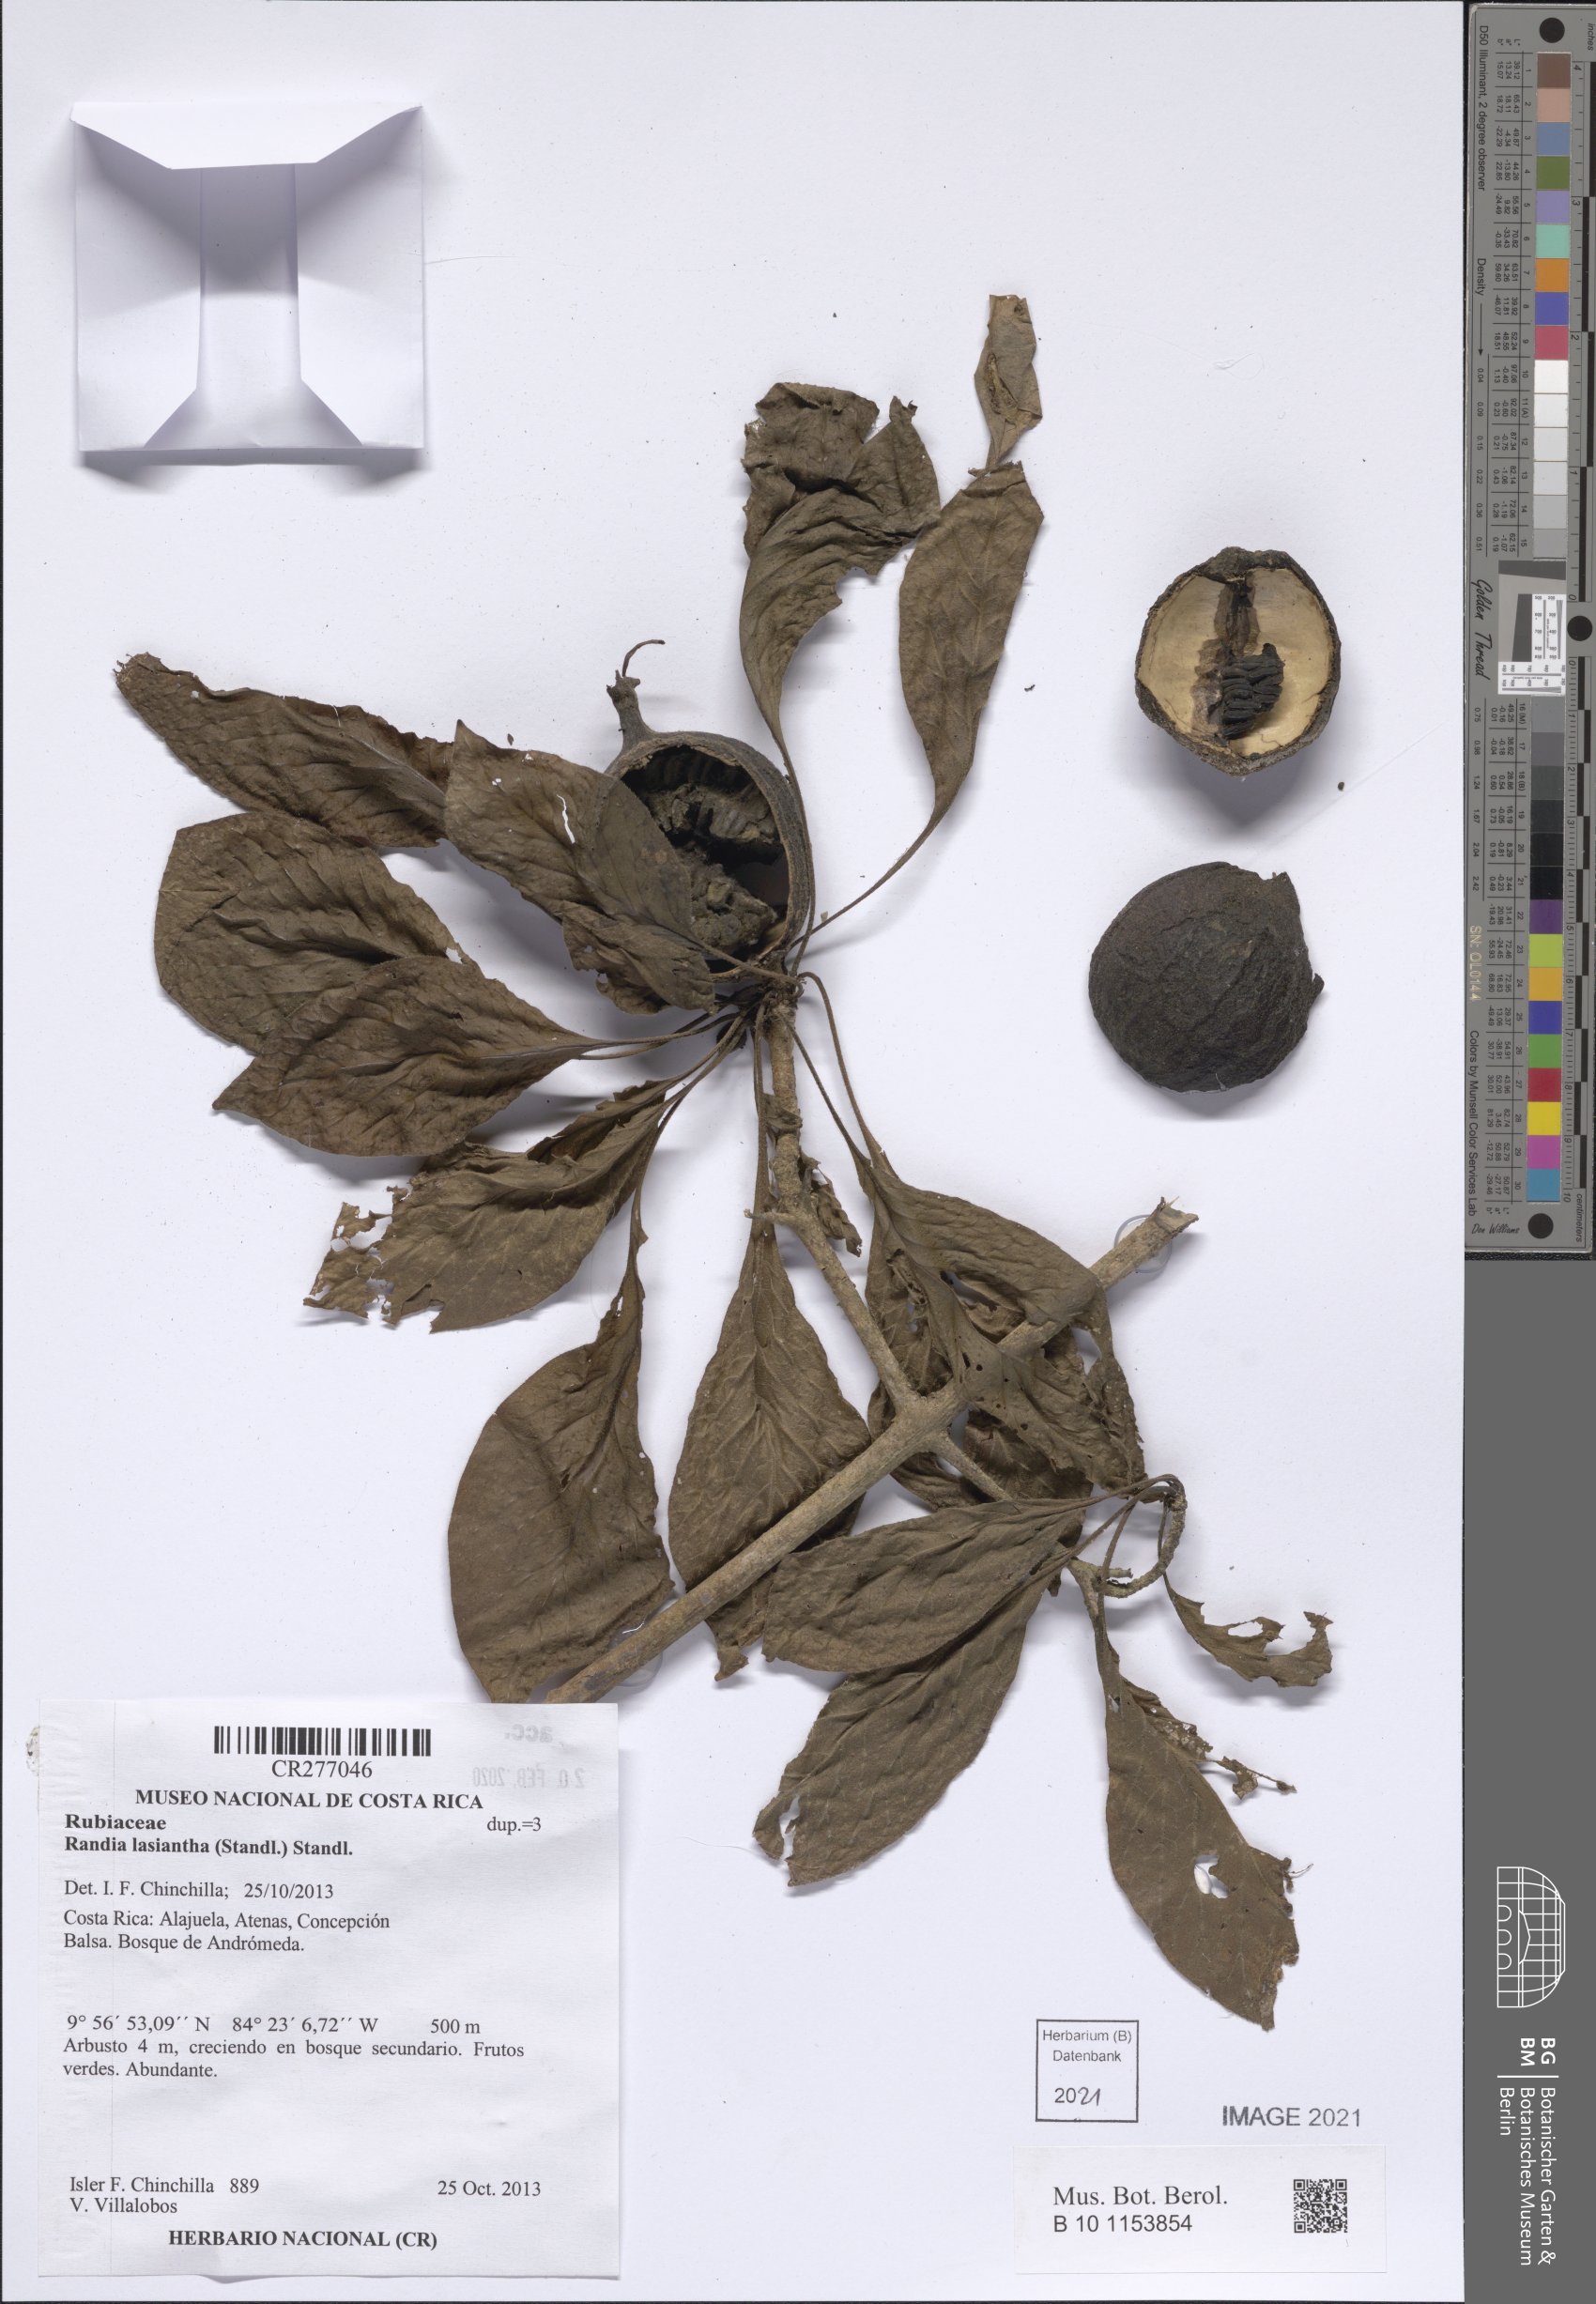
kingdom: Plantae
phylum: Tracheophyta
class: Magnoliopsida
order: Gentianales
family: Rubiaceae
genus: Randia
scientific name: Randia
